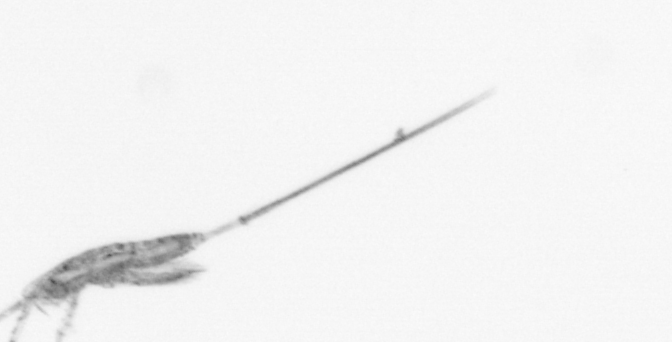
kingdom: Animalia
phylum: Arthropoda
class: Copepoda
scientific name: Copepoda
